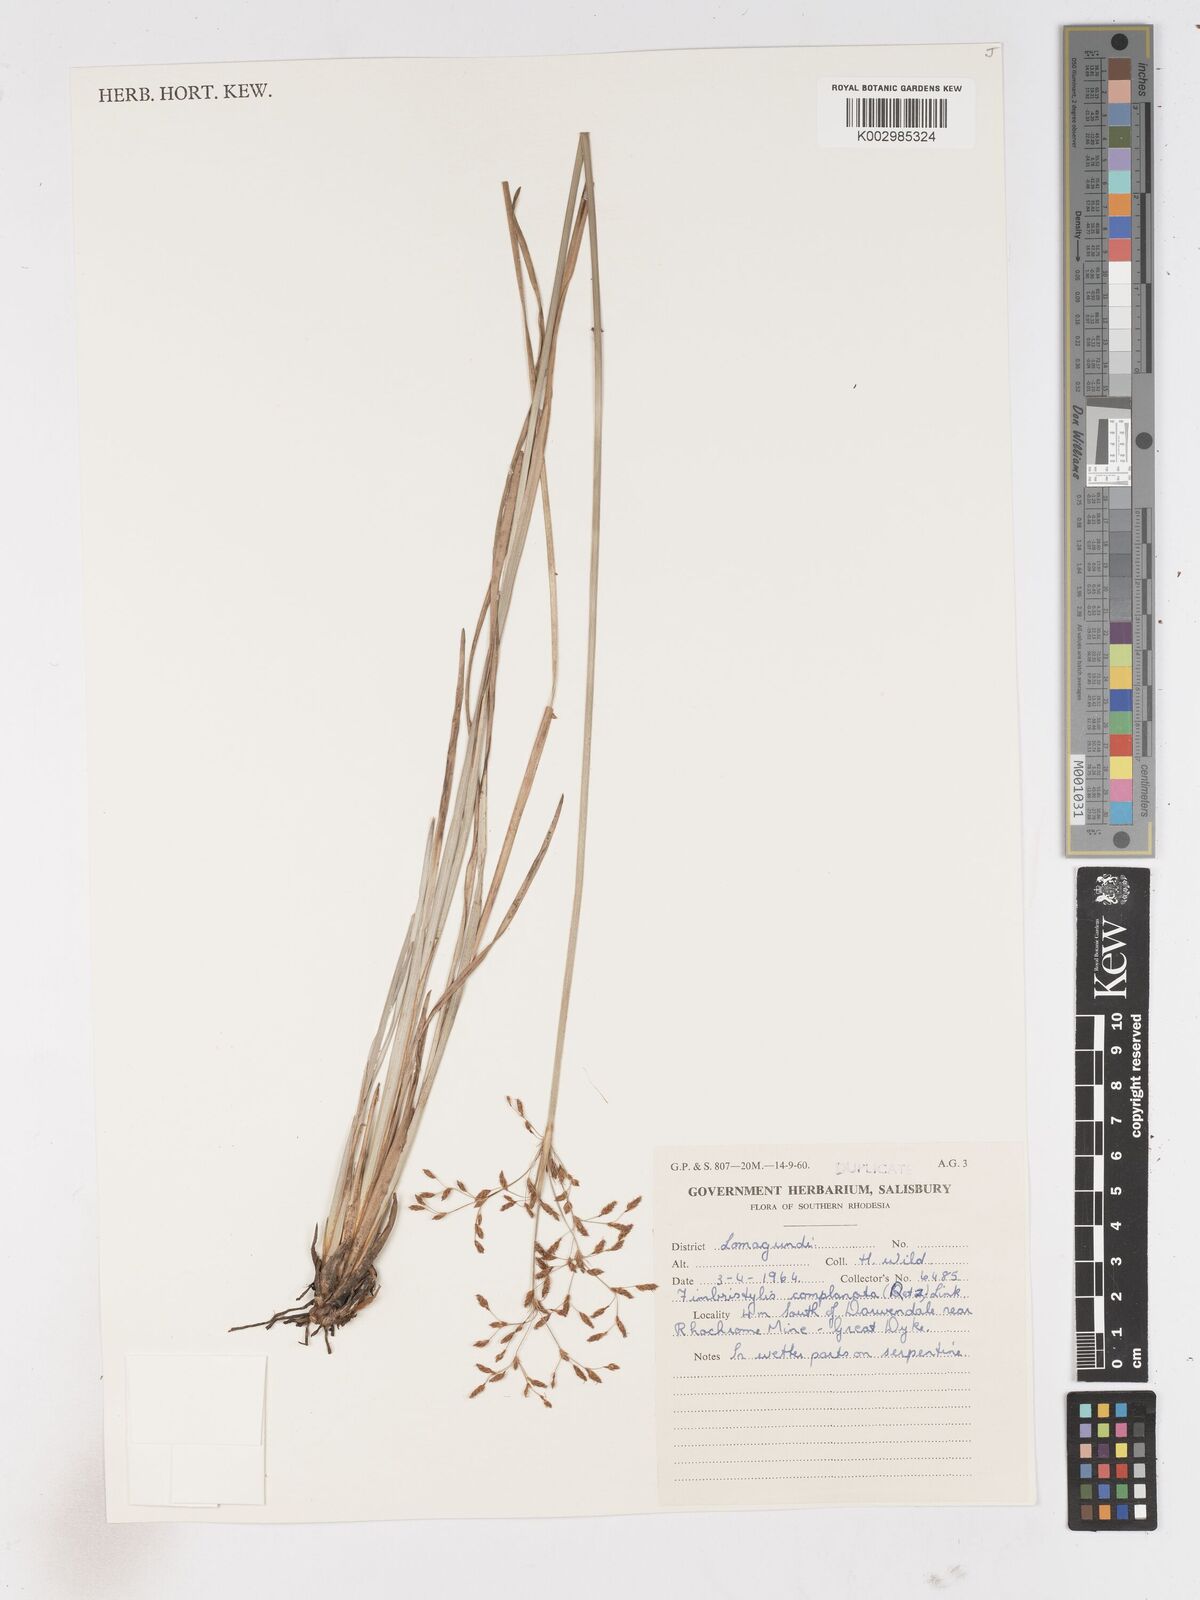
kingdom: Plantae
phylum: Tracheophyta
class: Liliopsida
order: Poales
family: Cyperaceae
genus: Fimbristylis
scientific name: Fimbristylis complanata
